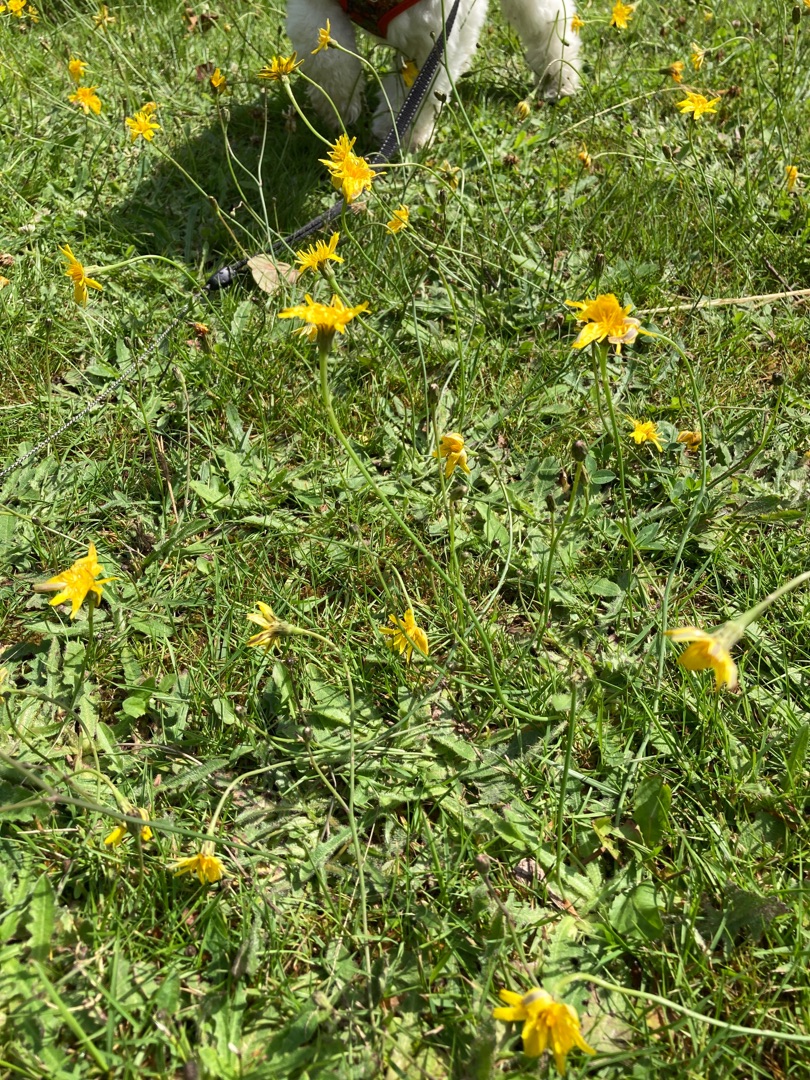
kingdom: Plantae
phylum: Tracheophyta
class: Magnoliopsida
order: Asterales
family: Asteraceae
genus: Hypochaeris
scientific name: Hypochaeris radicata
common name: Almindelig kongepen
